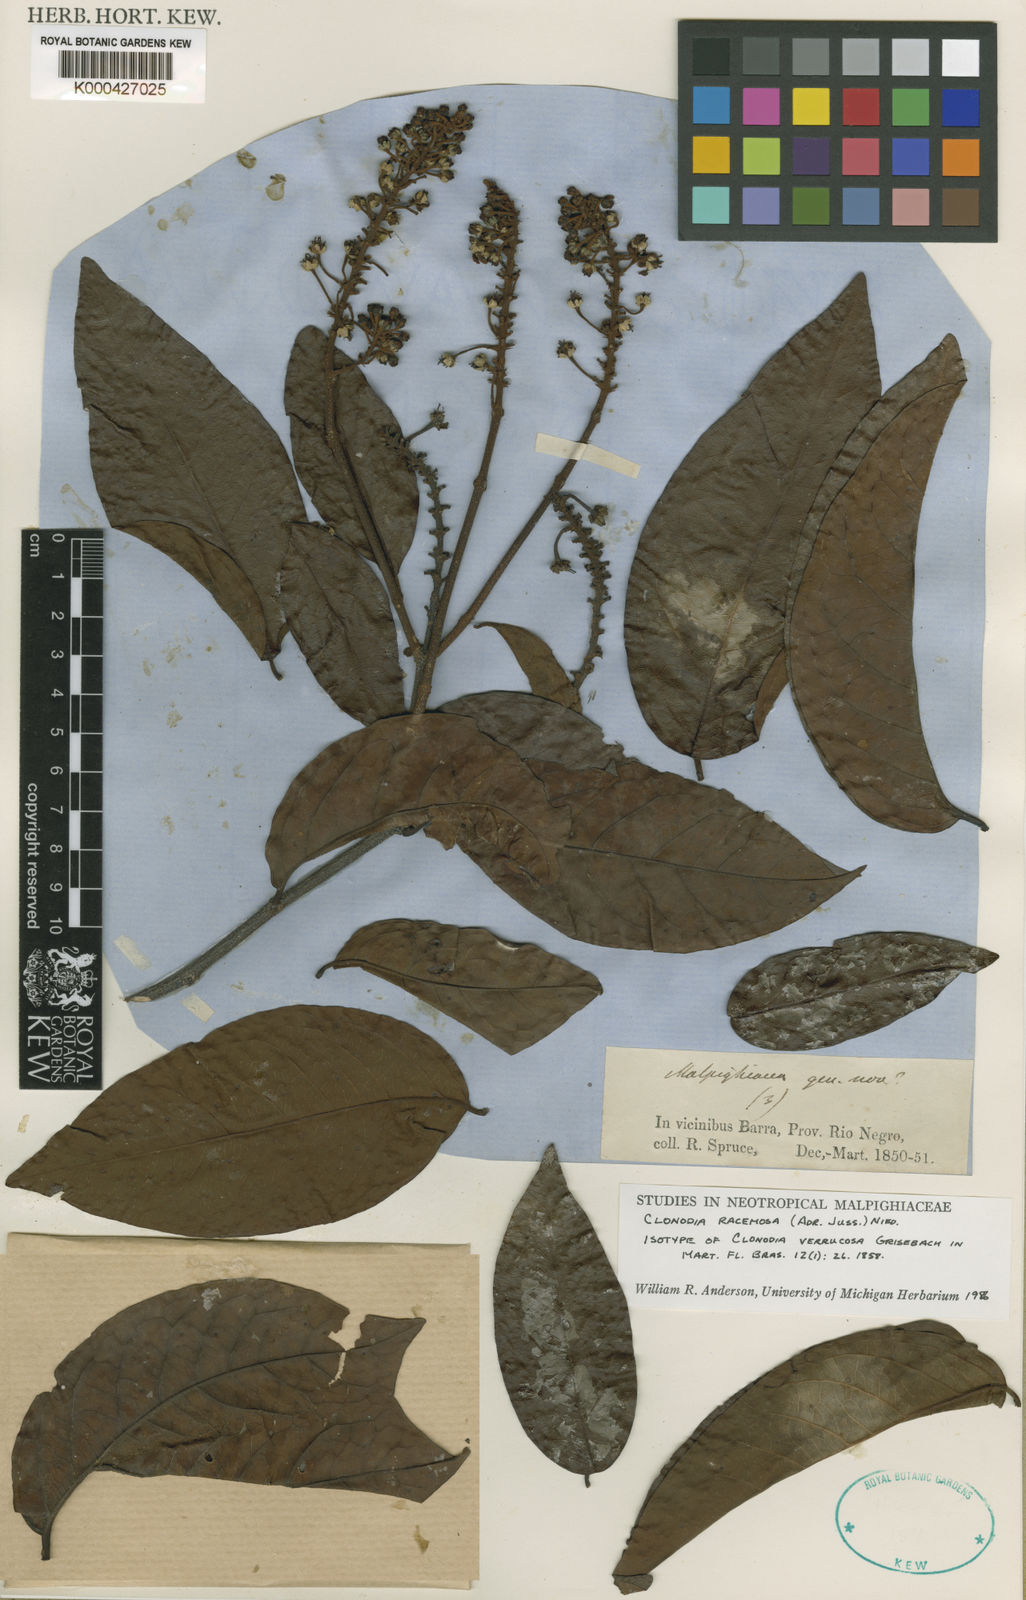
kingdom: Plantae
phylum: Tracheophyta
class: Magnoliopsida
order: Malpighiales
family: Malpighiaceae
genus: Heteropterys
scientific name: Heteropterys racemosa
